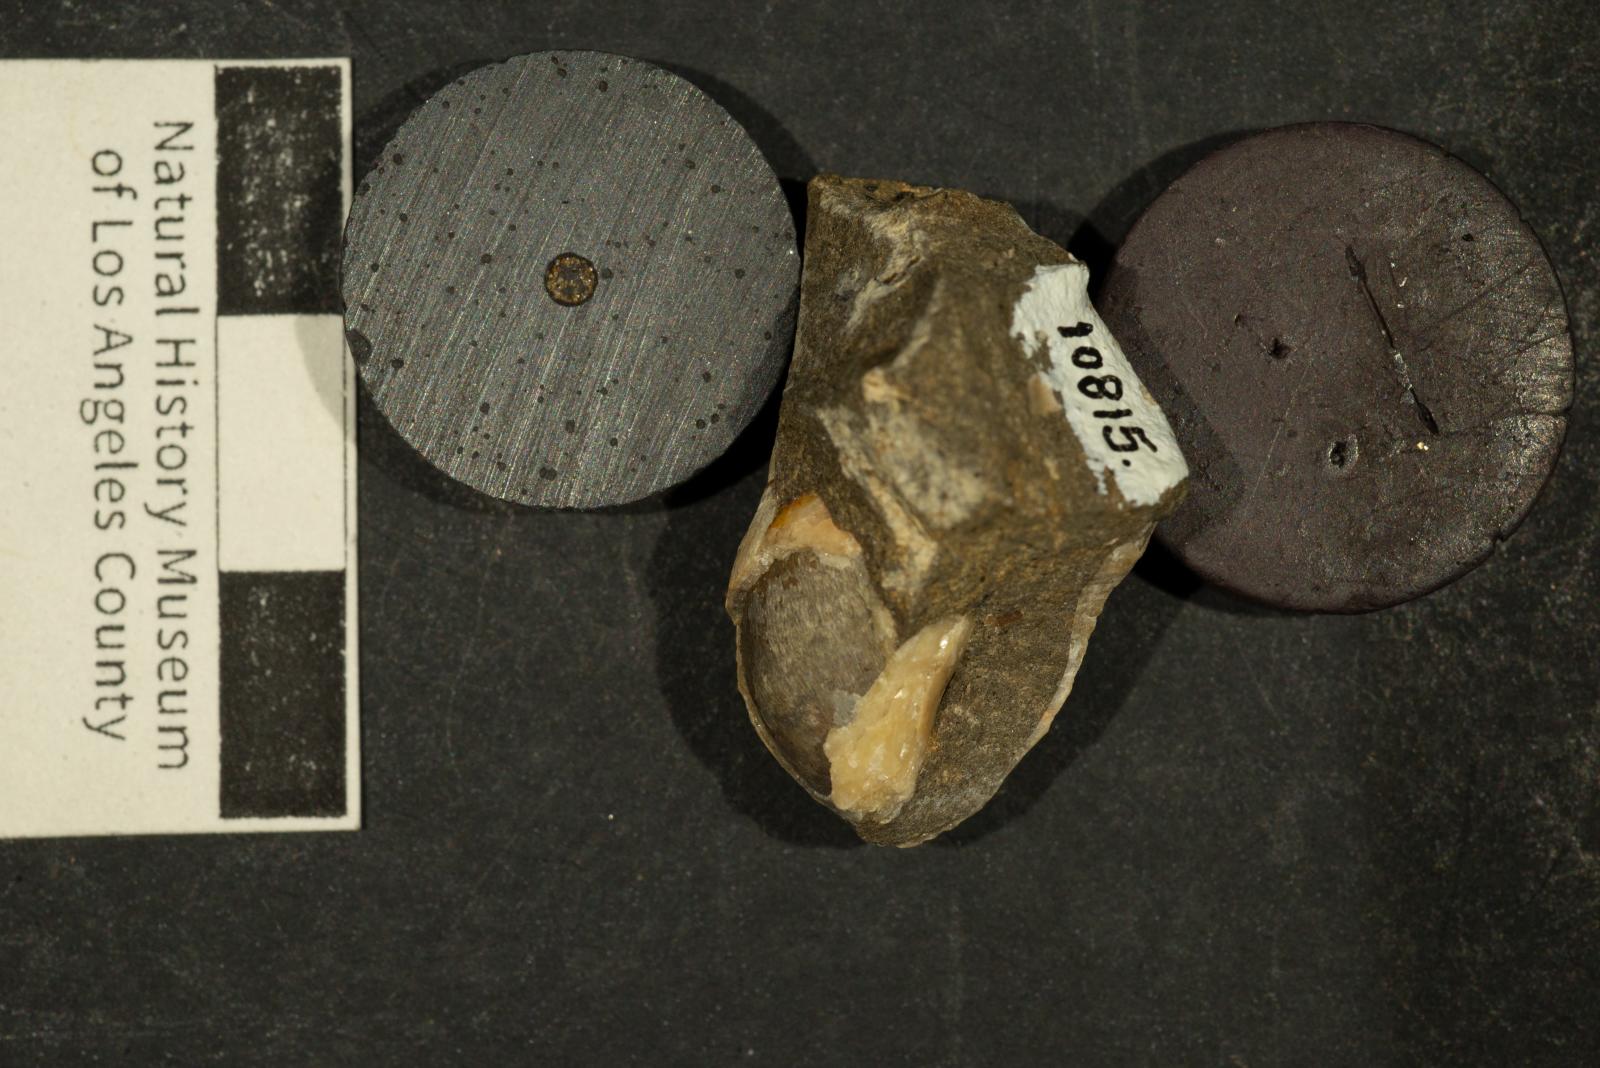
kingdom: Animalia
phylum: Mollusca
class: Gastropoda
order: Littorinimorpha
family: Aporrhaidae
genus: Latiala
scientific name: Latiala Aporrhais californica
